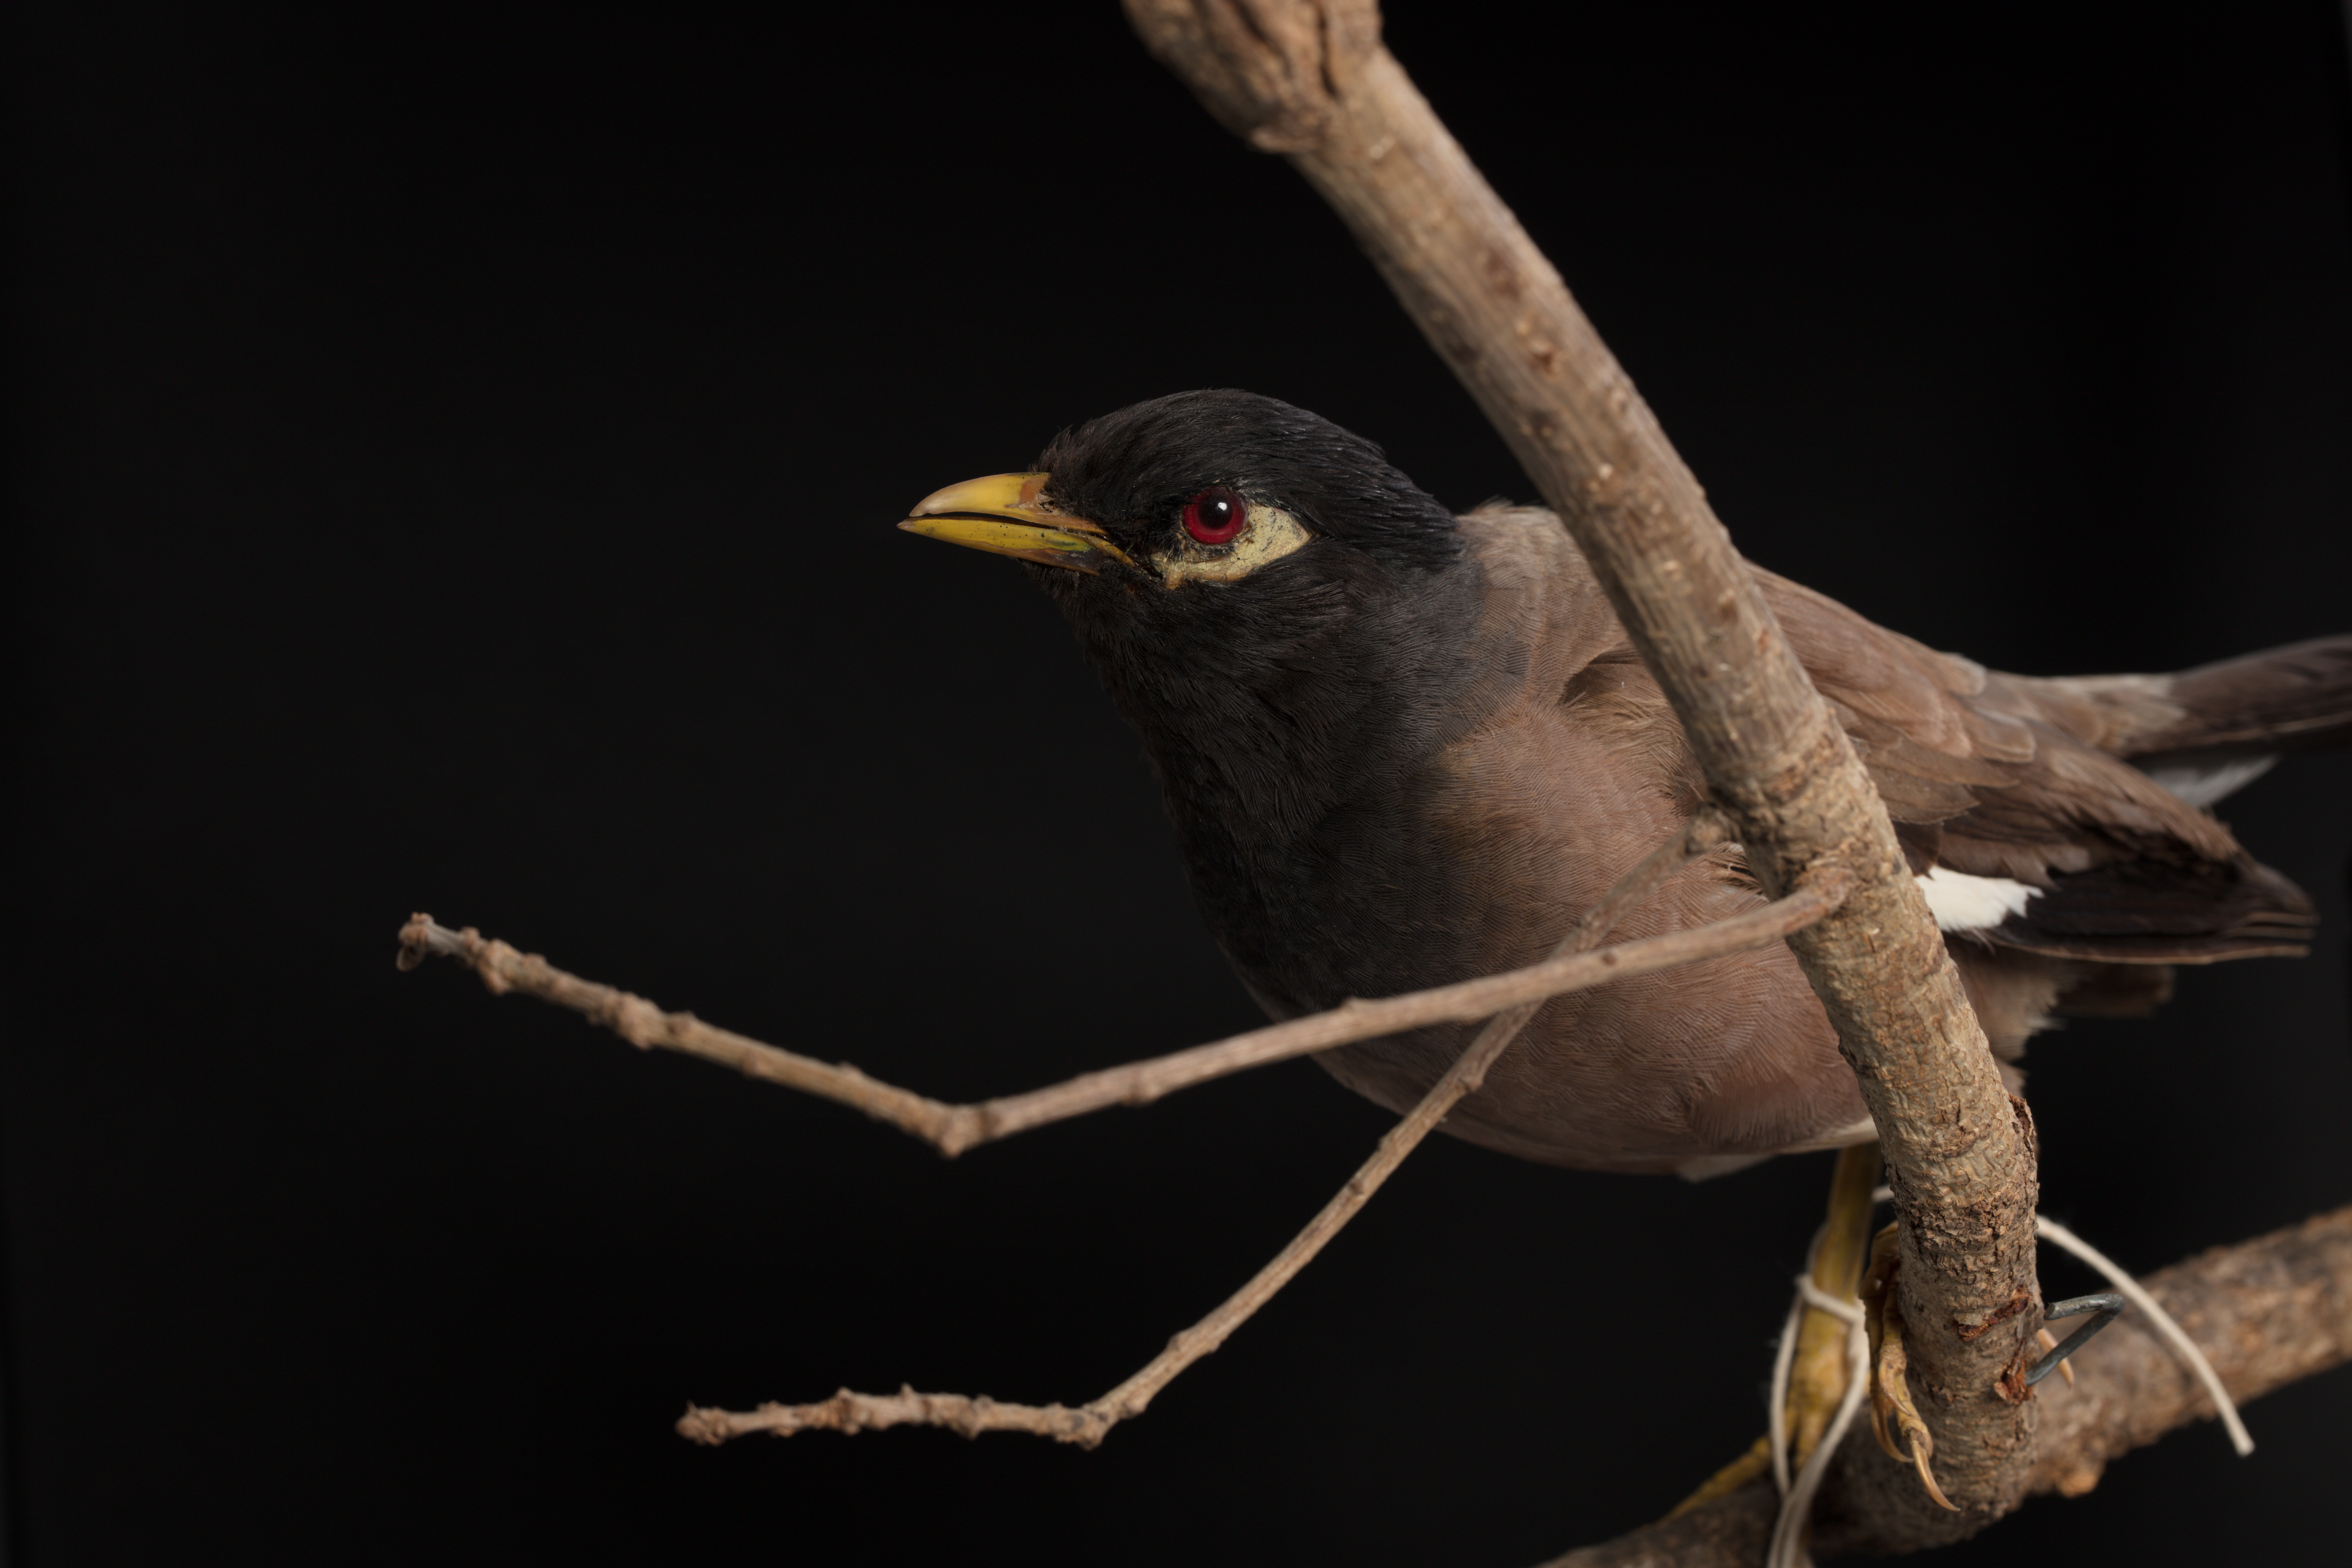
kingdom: Animalia
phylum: Chordata
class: Aves
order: Passeriformes
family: Sturnidae
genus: Acridotheres
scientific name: Acridotheres tristis
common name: Common myna
